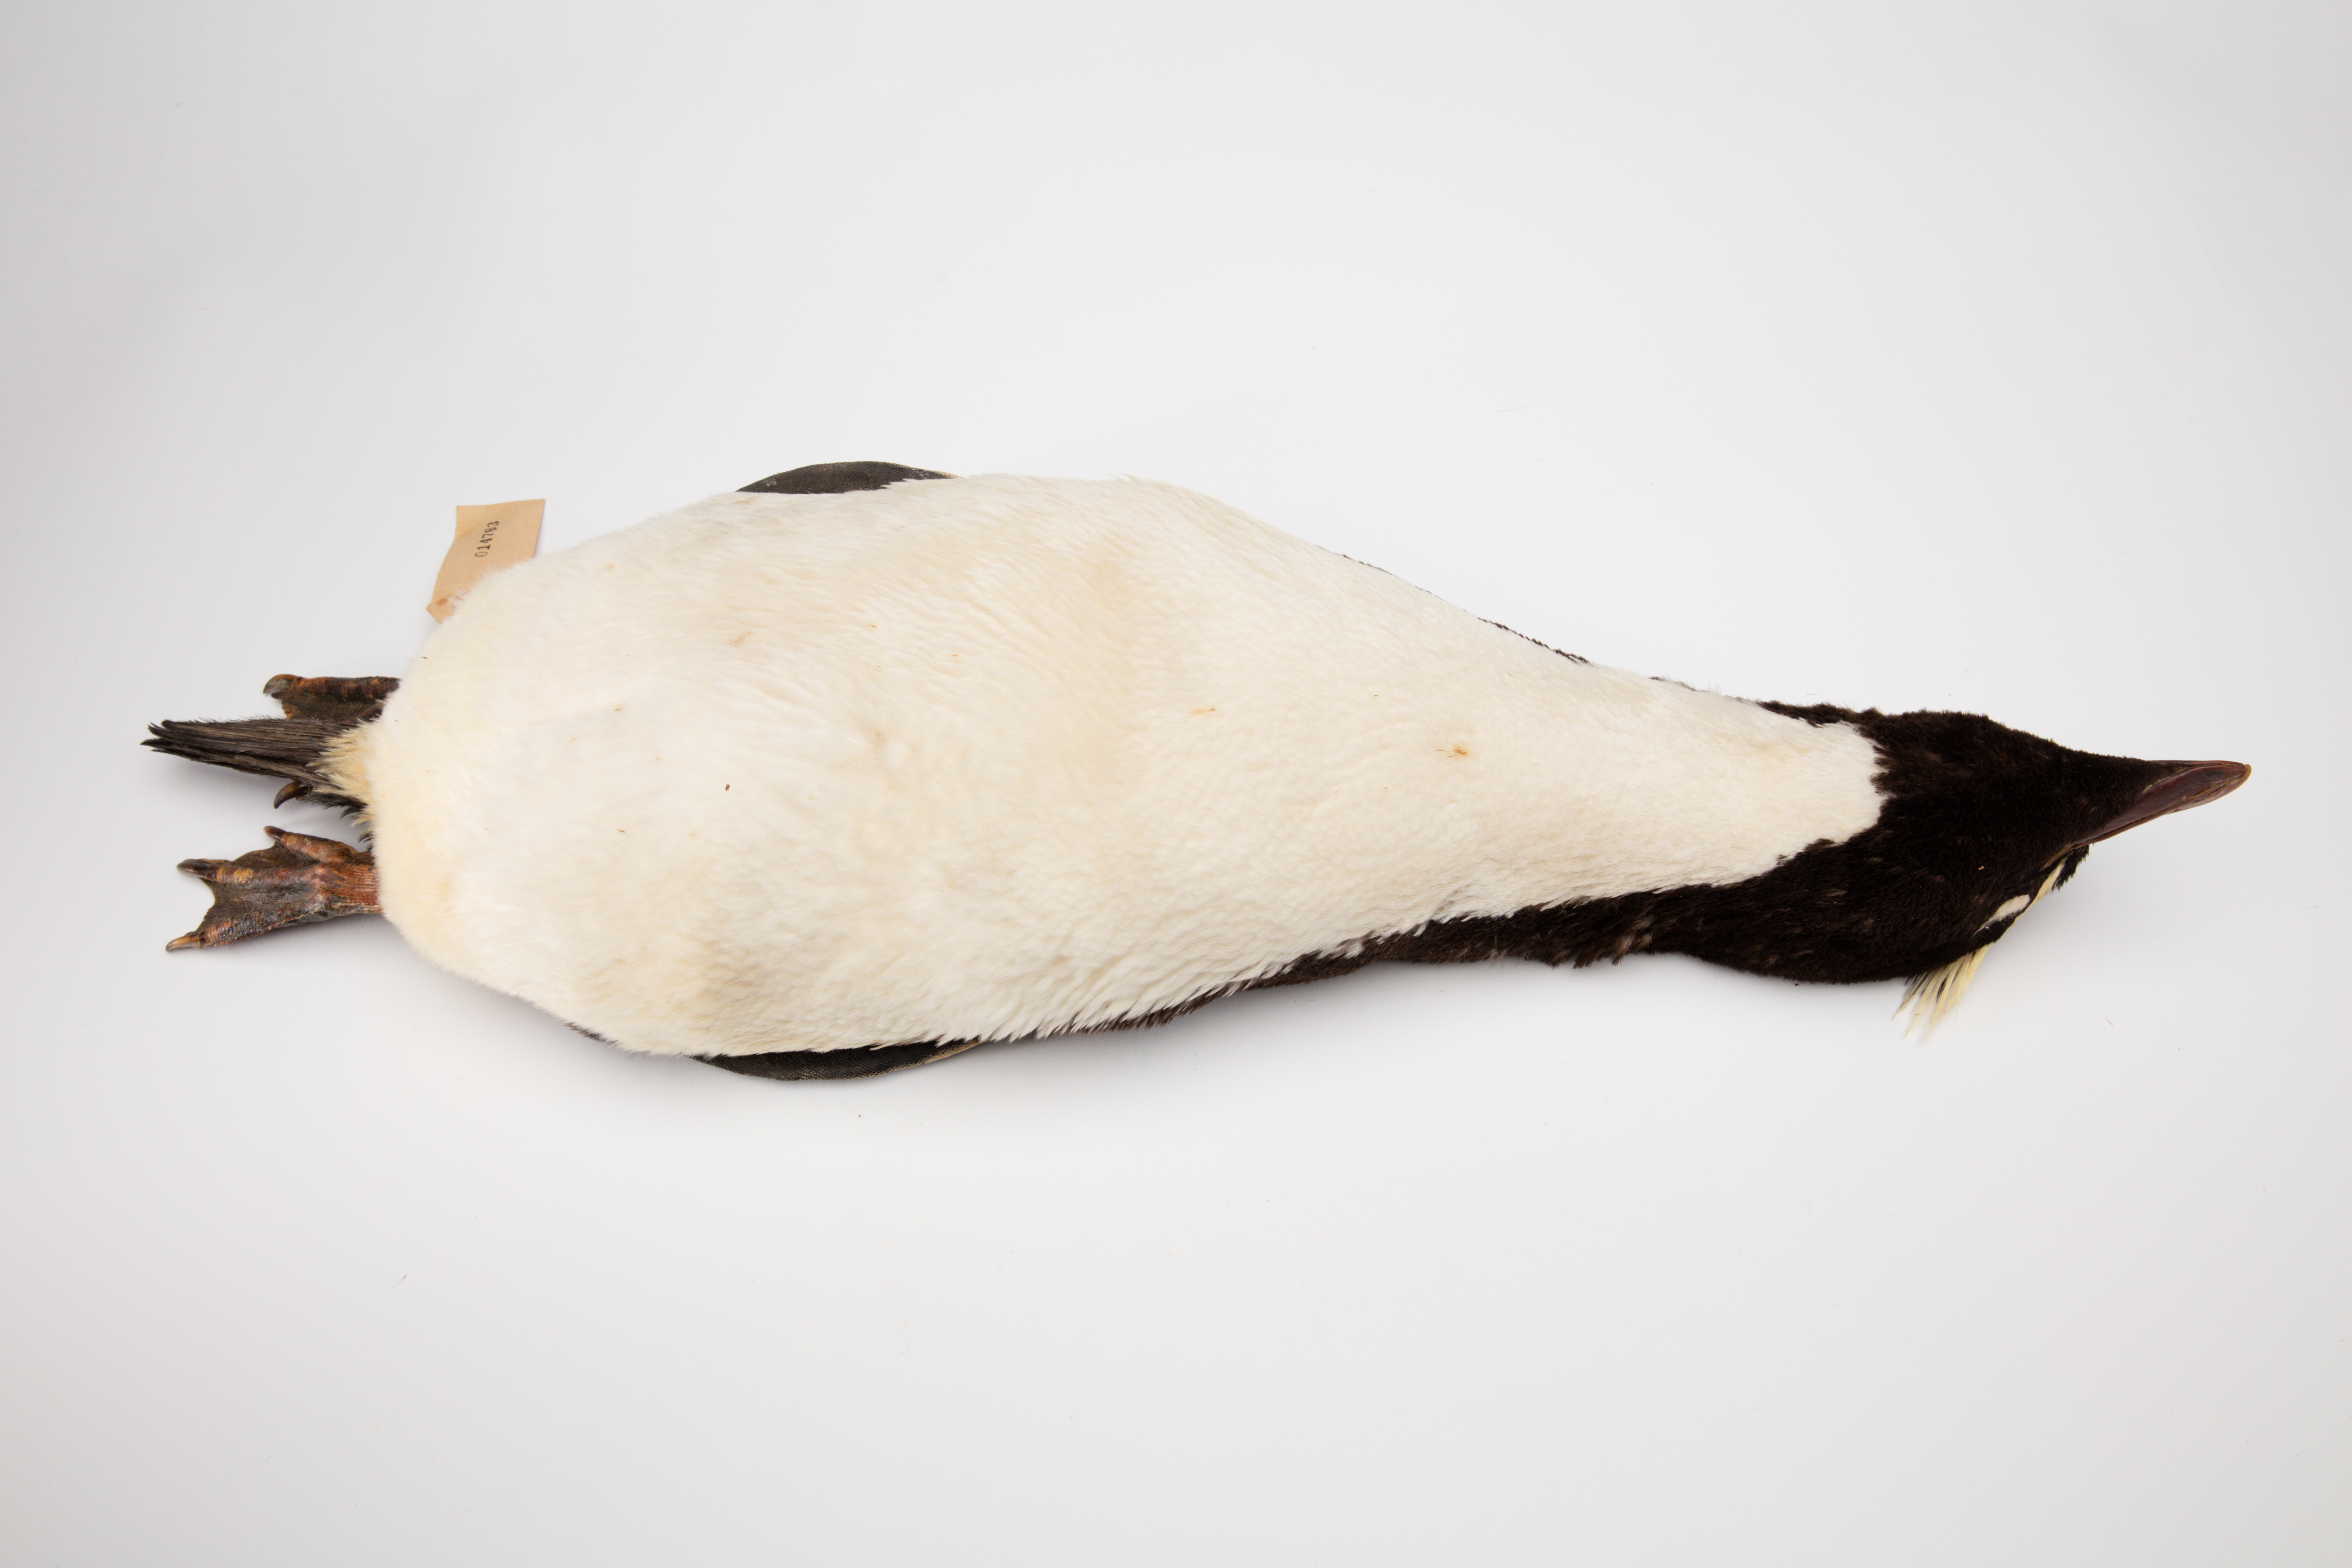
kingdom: Animalia
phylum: Chordata
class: Aves
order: Sphenisciformes
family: Spheniscidae
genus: Eudyptes
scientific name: Eudyptes sclateri
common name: Erect-crested penguin
